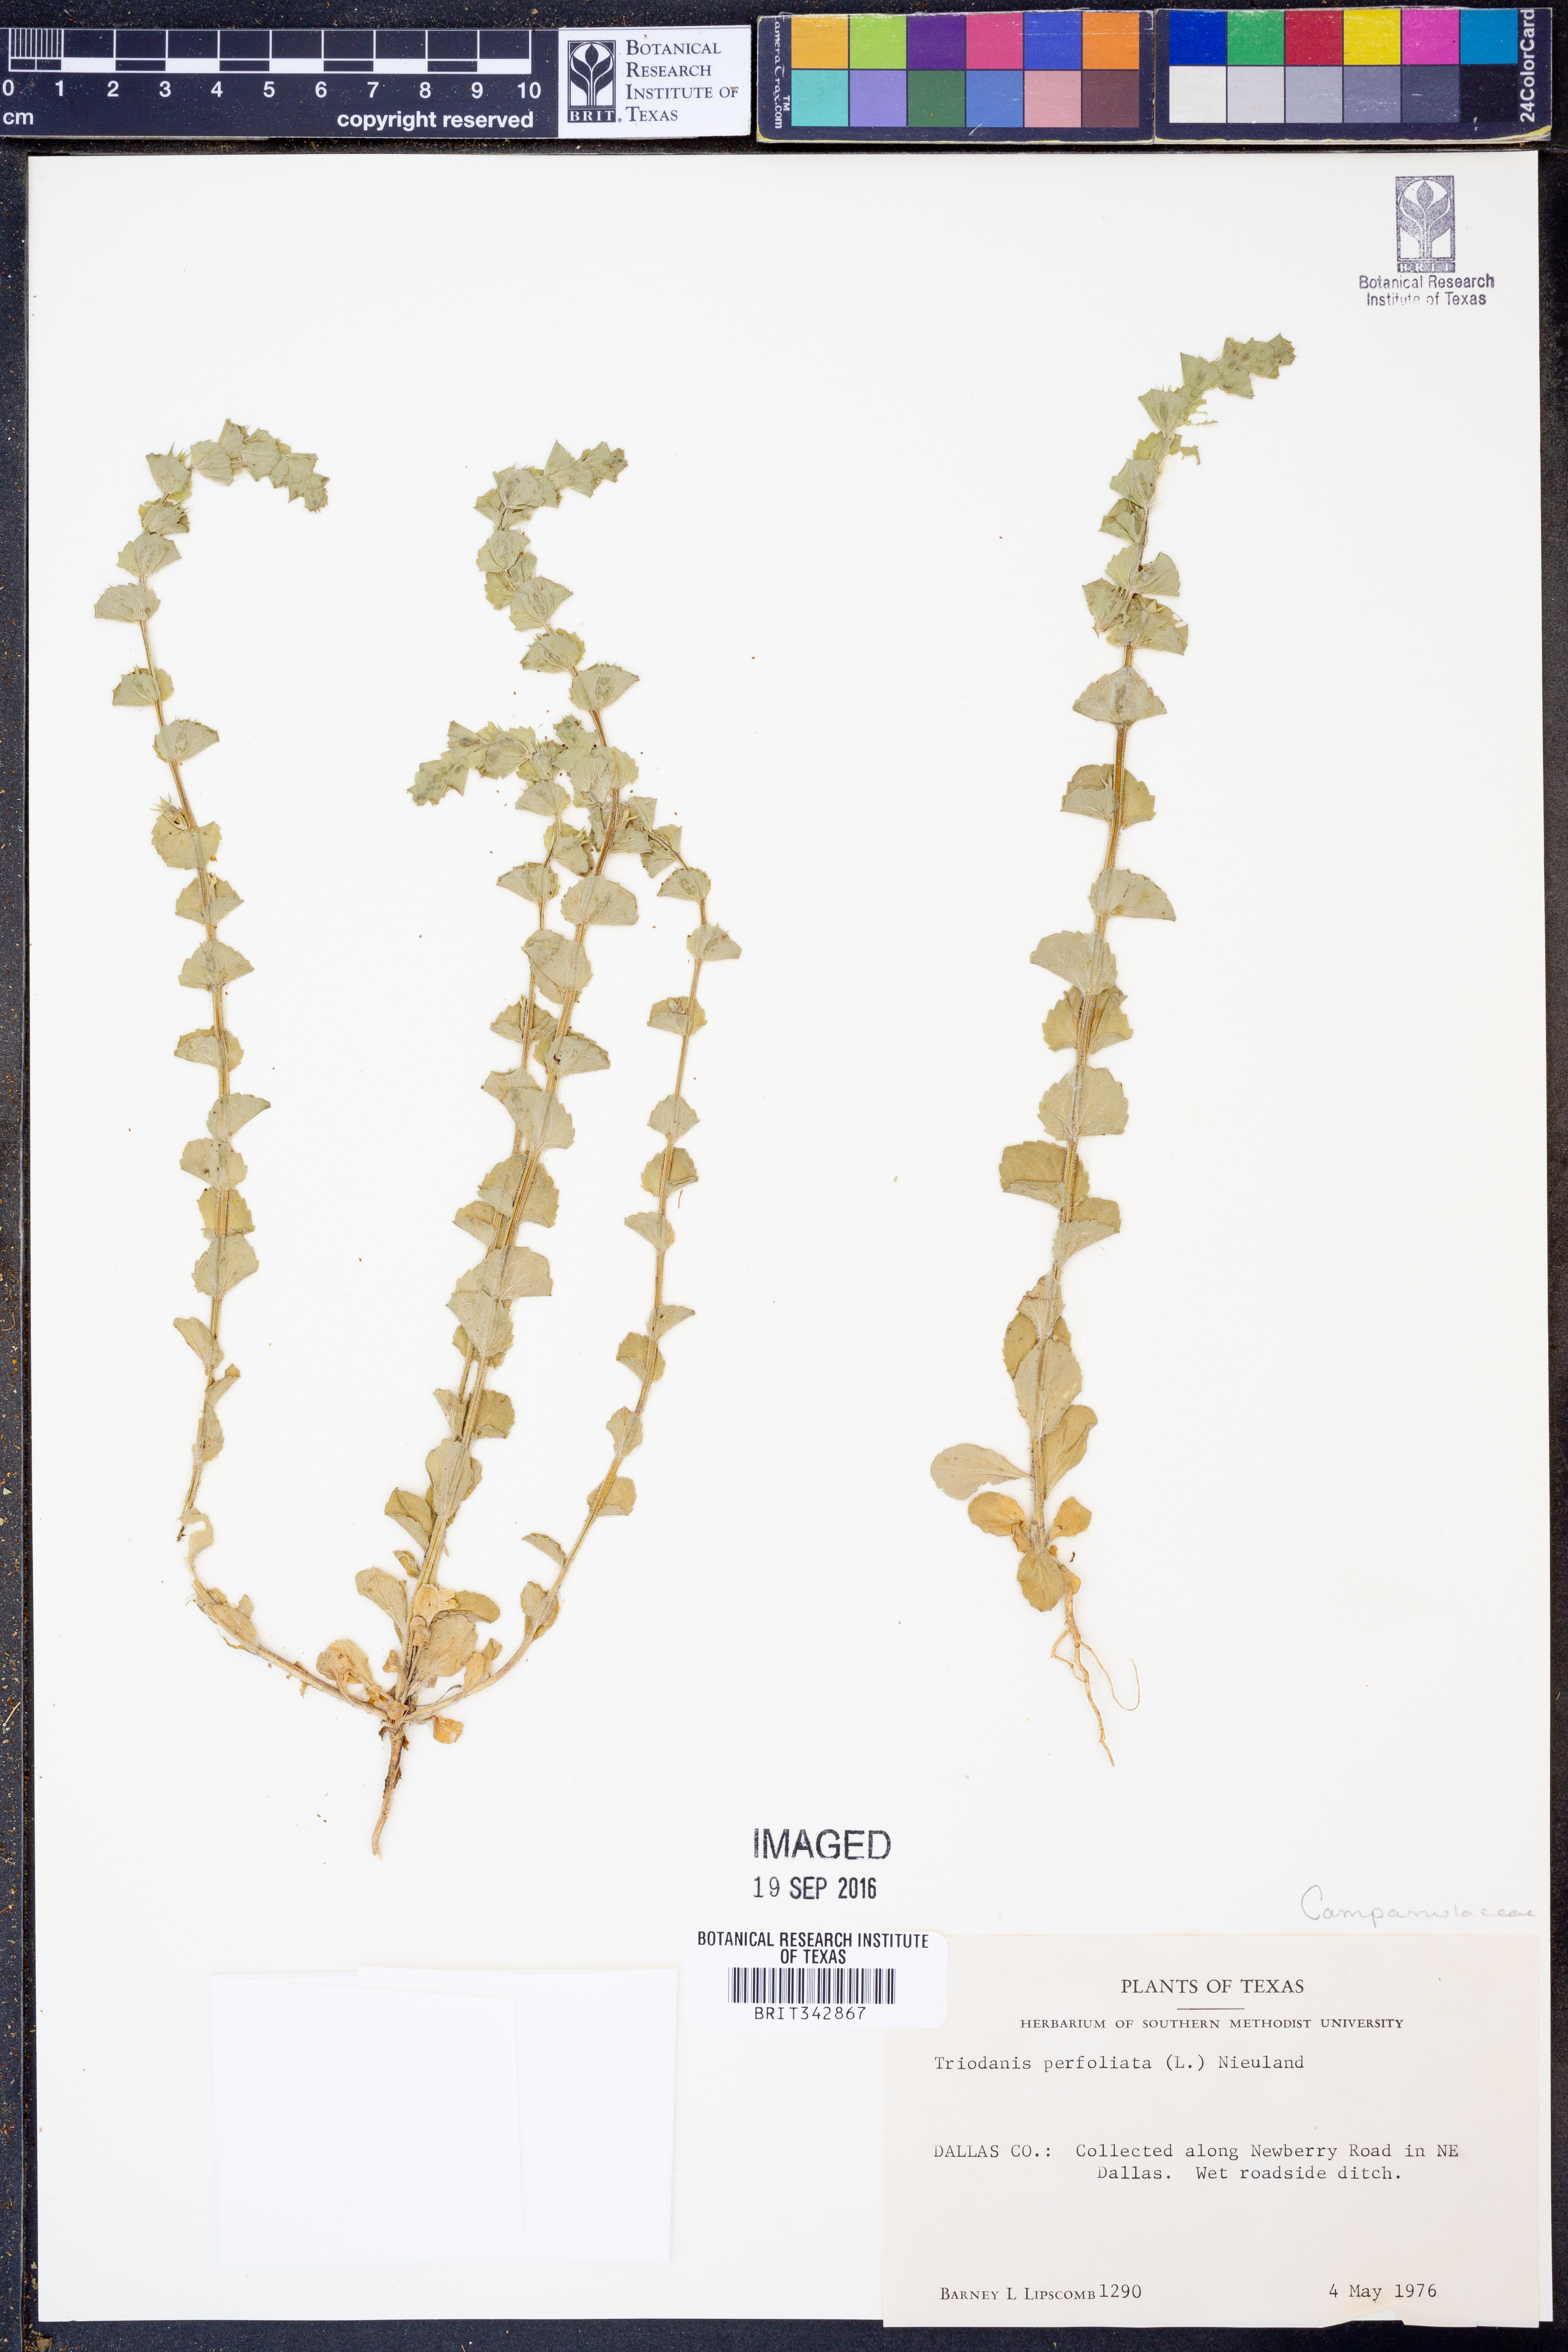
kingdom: Plantae
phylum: Tracheophyta
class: Magnoliopsida
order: Asterales
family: Campanulaceae
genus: Triodanis
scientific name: Triodanis perfoliata
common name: Clasping venus' looking-glass
